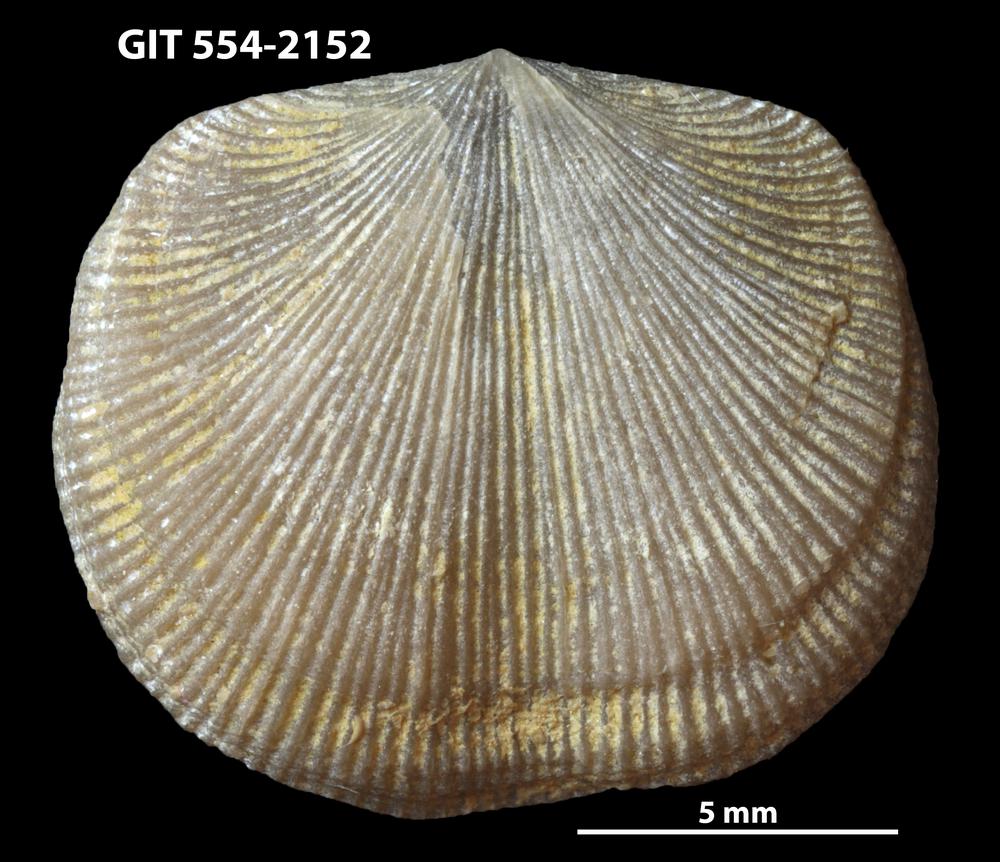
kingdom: Animalia
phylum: Brachiopoda
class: Rhynchonellata
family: Dalmanellidae
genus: Levenea
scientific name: Levenea Orthis canaliculata
